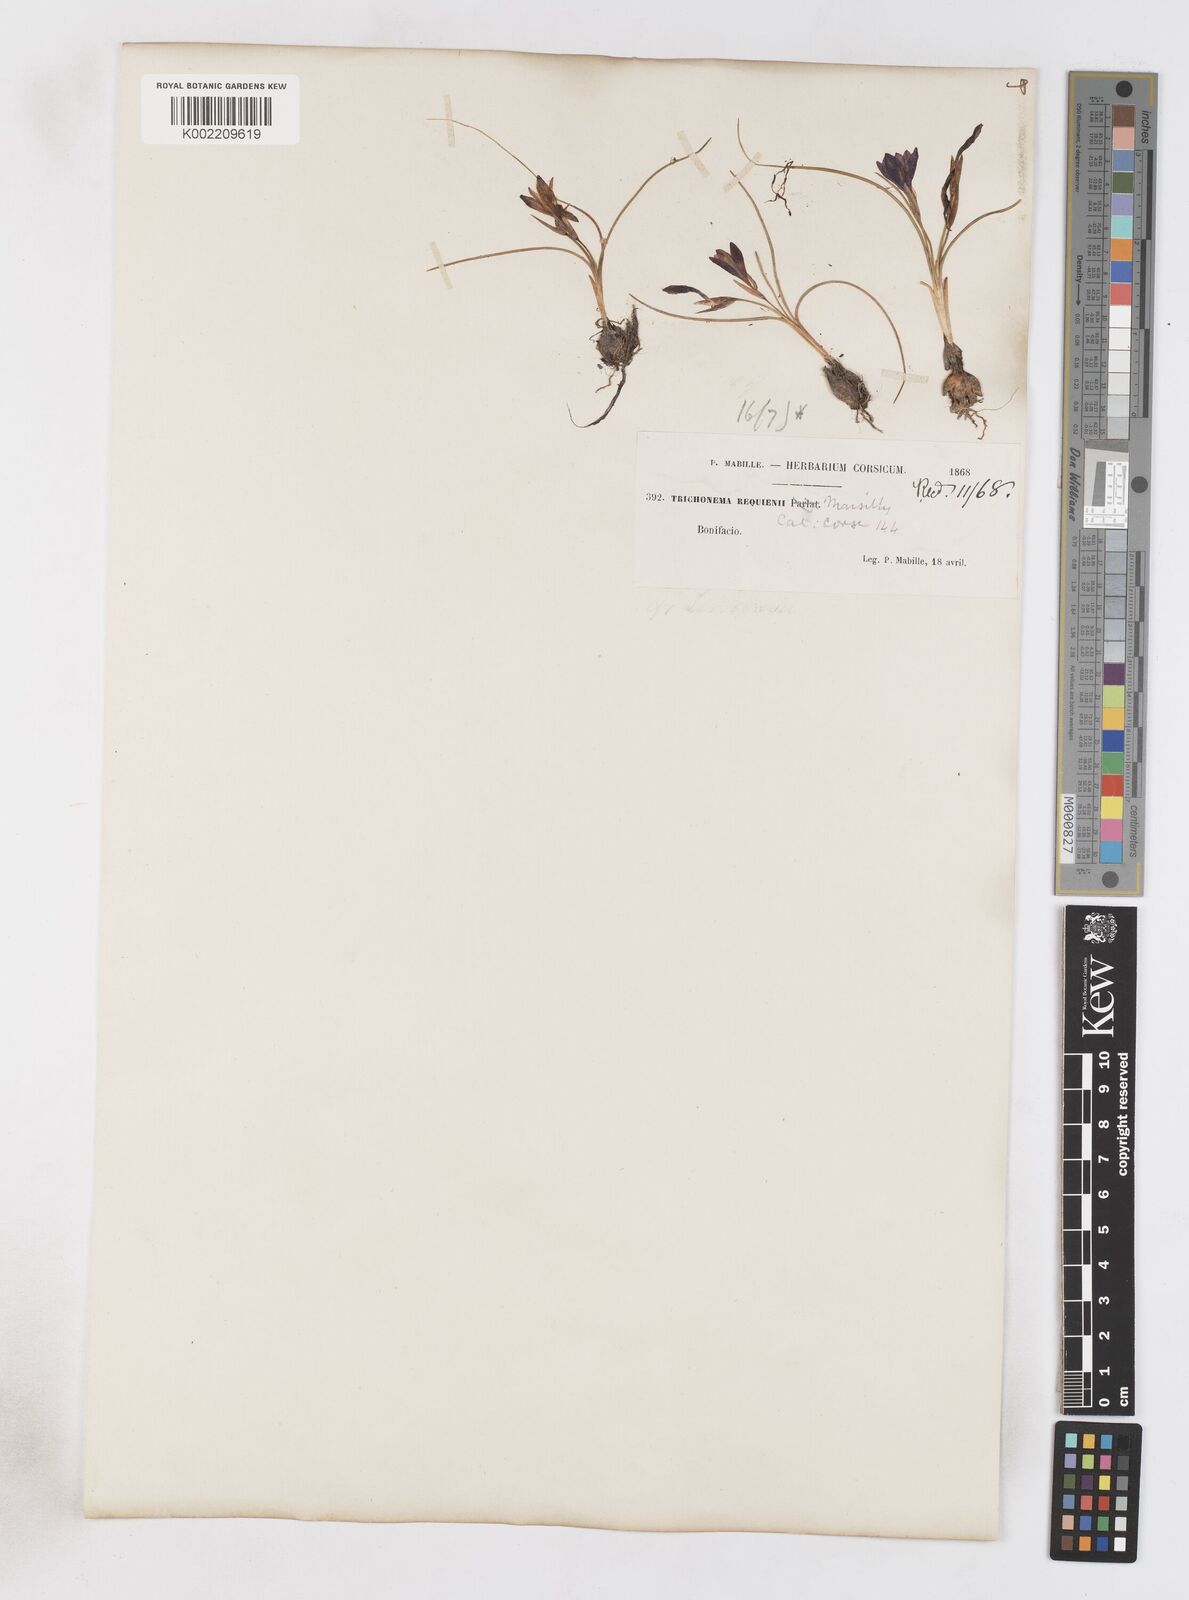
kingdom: Plantae
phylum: Tracheophyta
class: Liliopsida
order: Asparagales
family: Iridaceae
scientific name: Iridaceae
